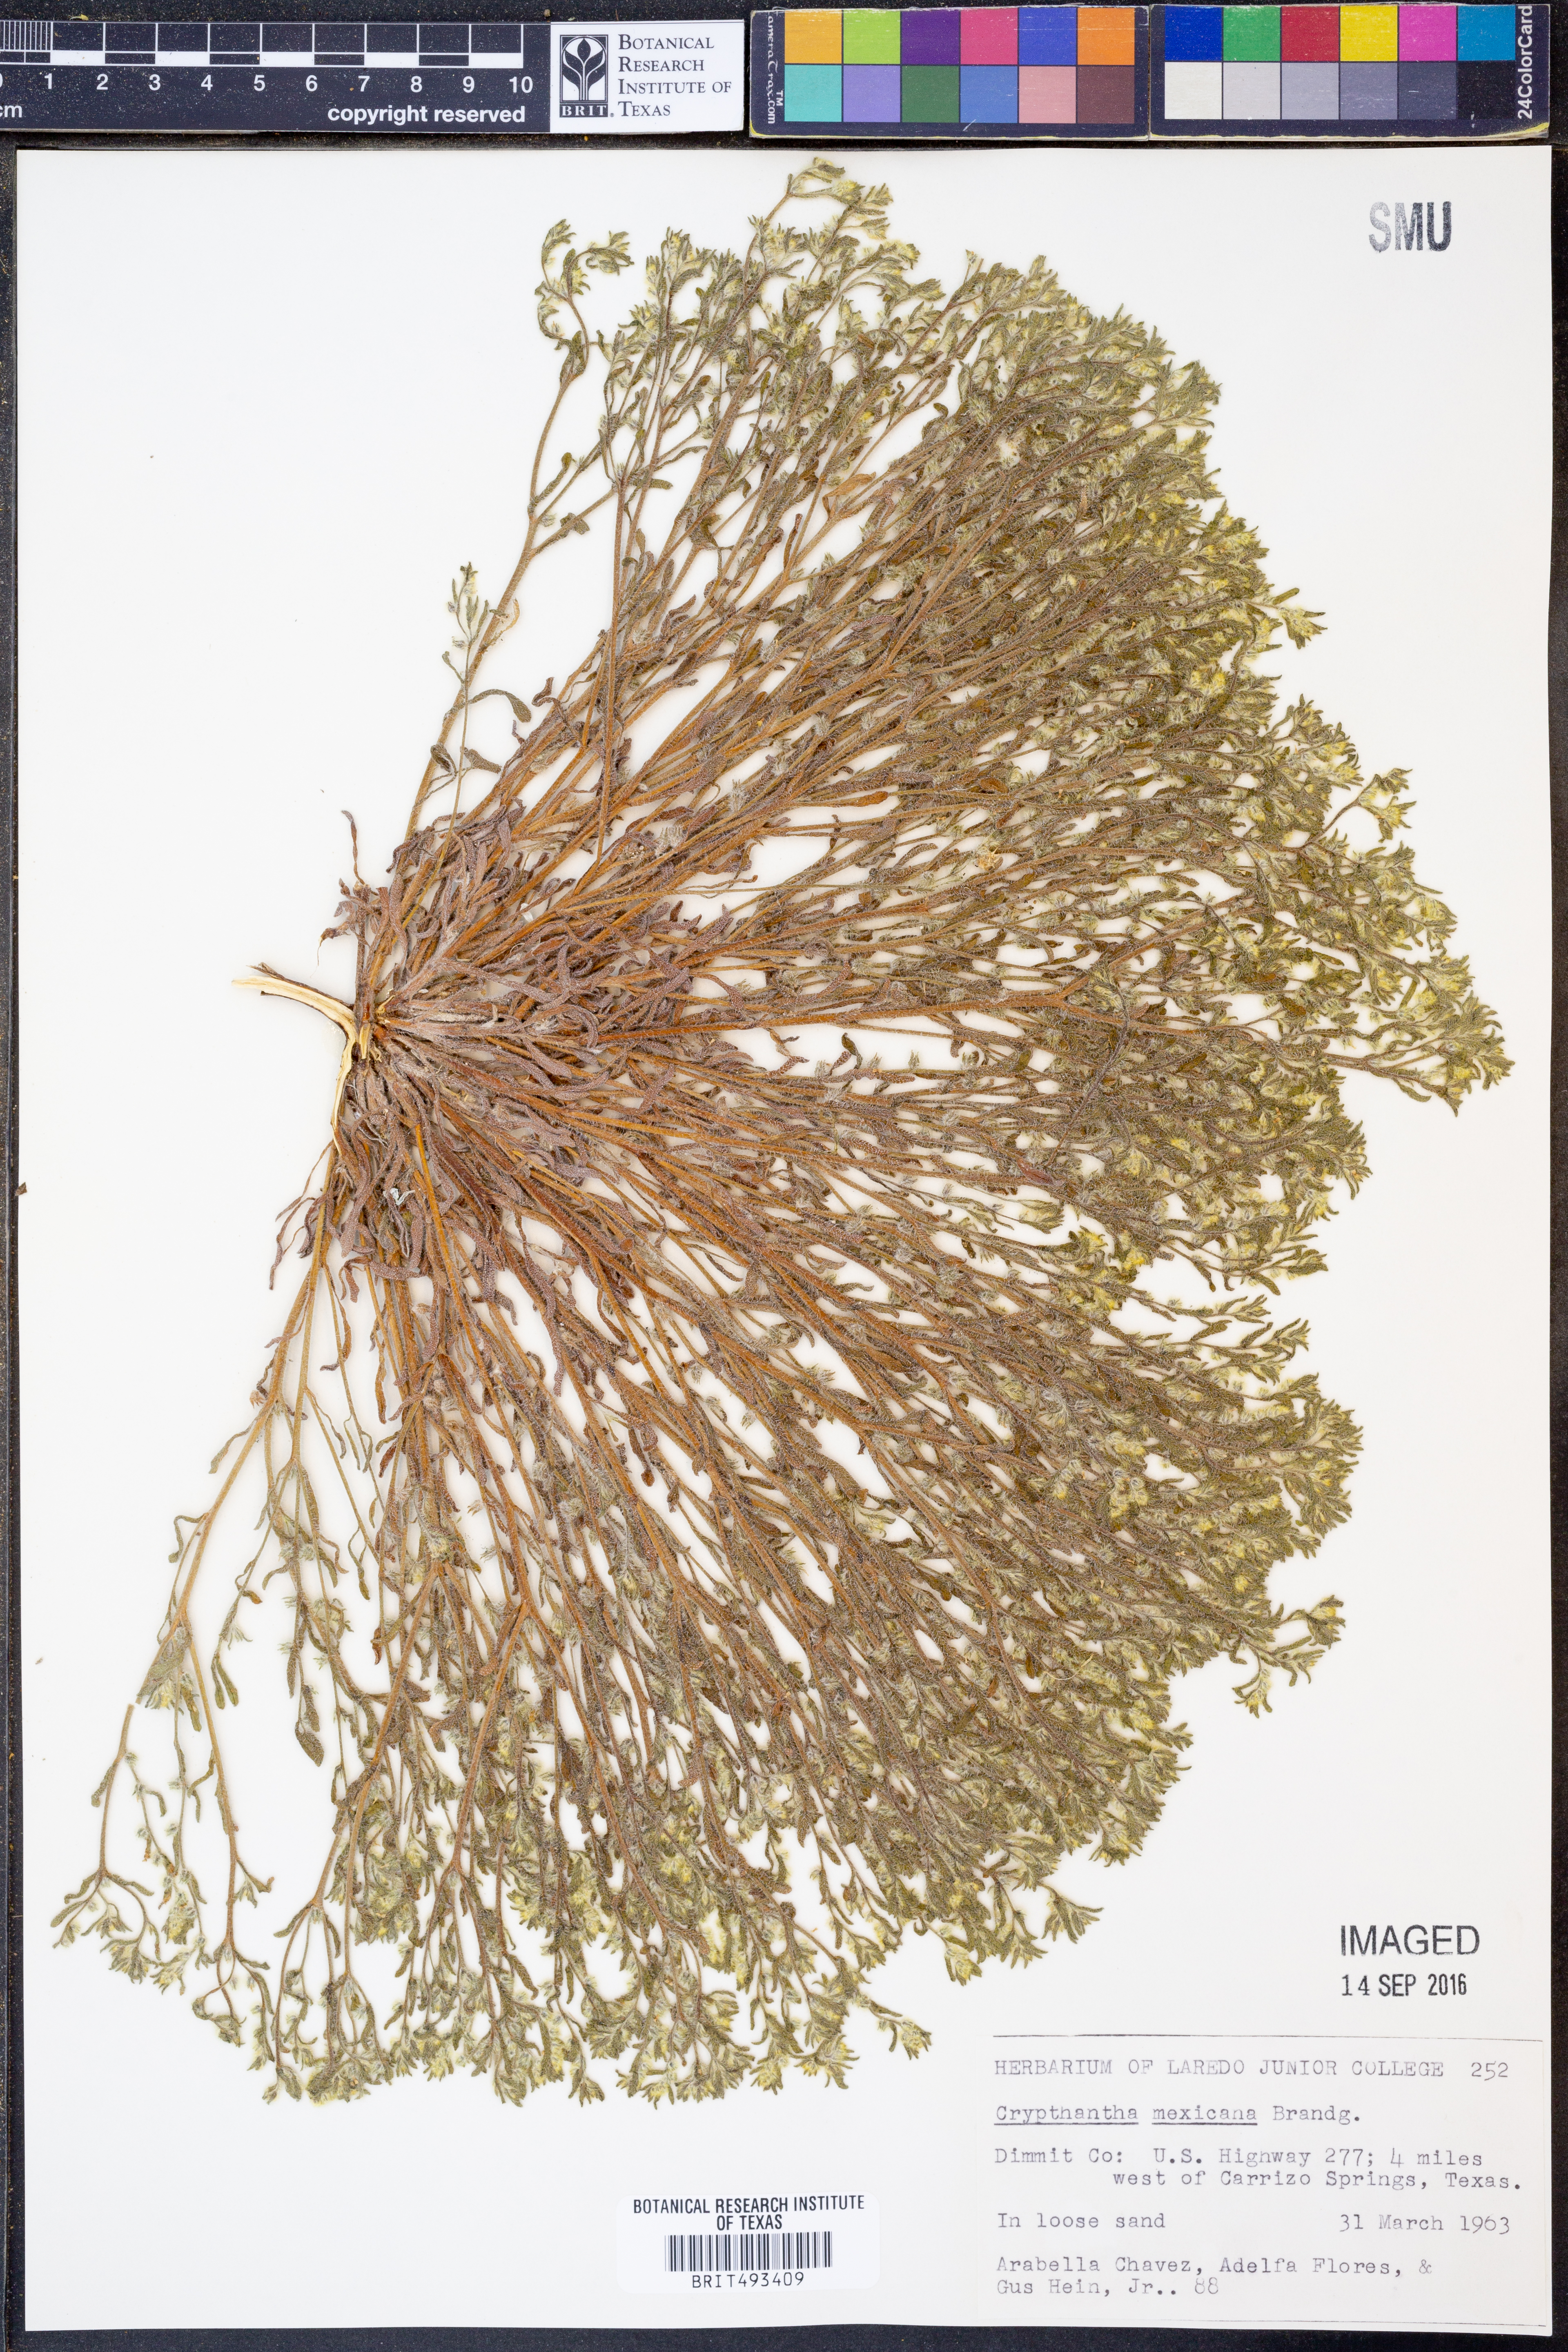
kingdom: Plantae
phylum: Tracheophyta
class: Magnoliopsida
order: Boraginales
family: Boraginaceae
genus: Johnstonella
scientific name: Johnstonella mexicana
